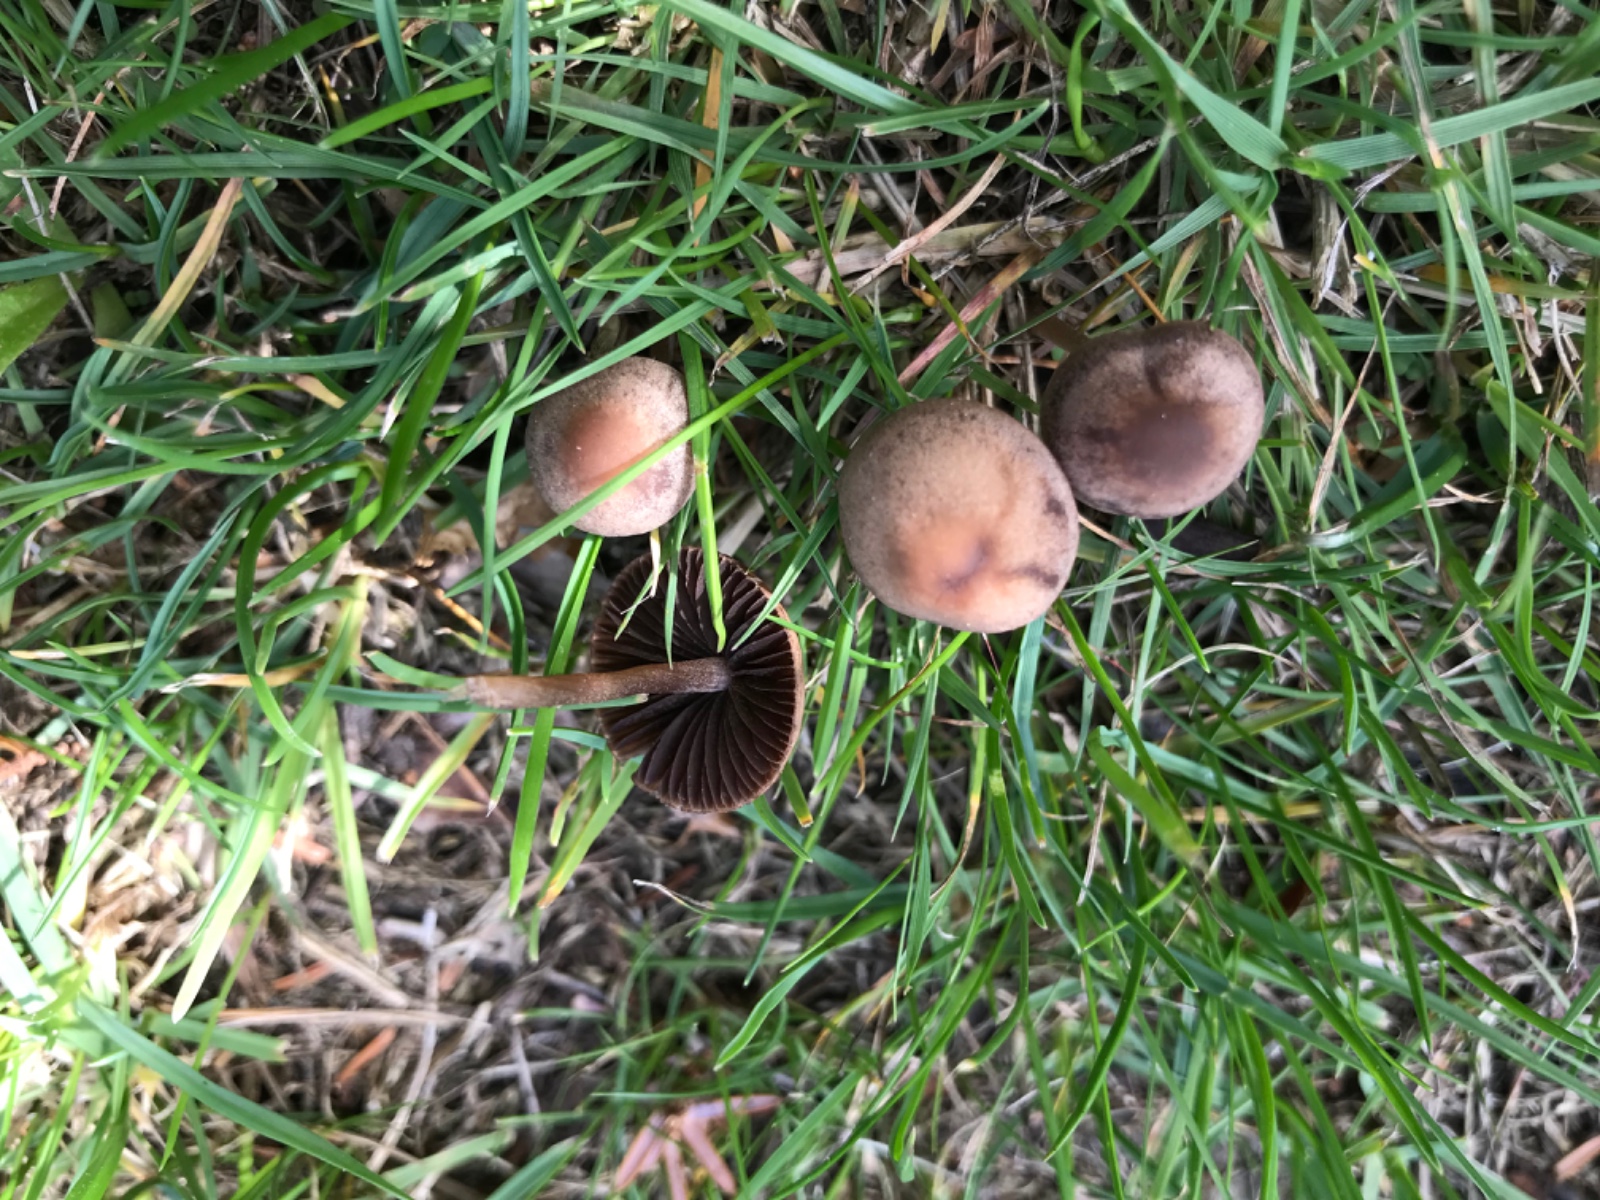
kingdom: Fungi
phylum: Basidiomycota
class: Agaricomycetes
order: Agaricales
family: Bolbitiaceae
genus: Panaeolina
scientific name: Panaeolina foenisecii
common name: høslætsvamp
